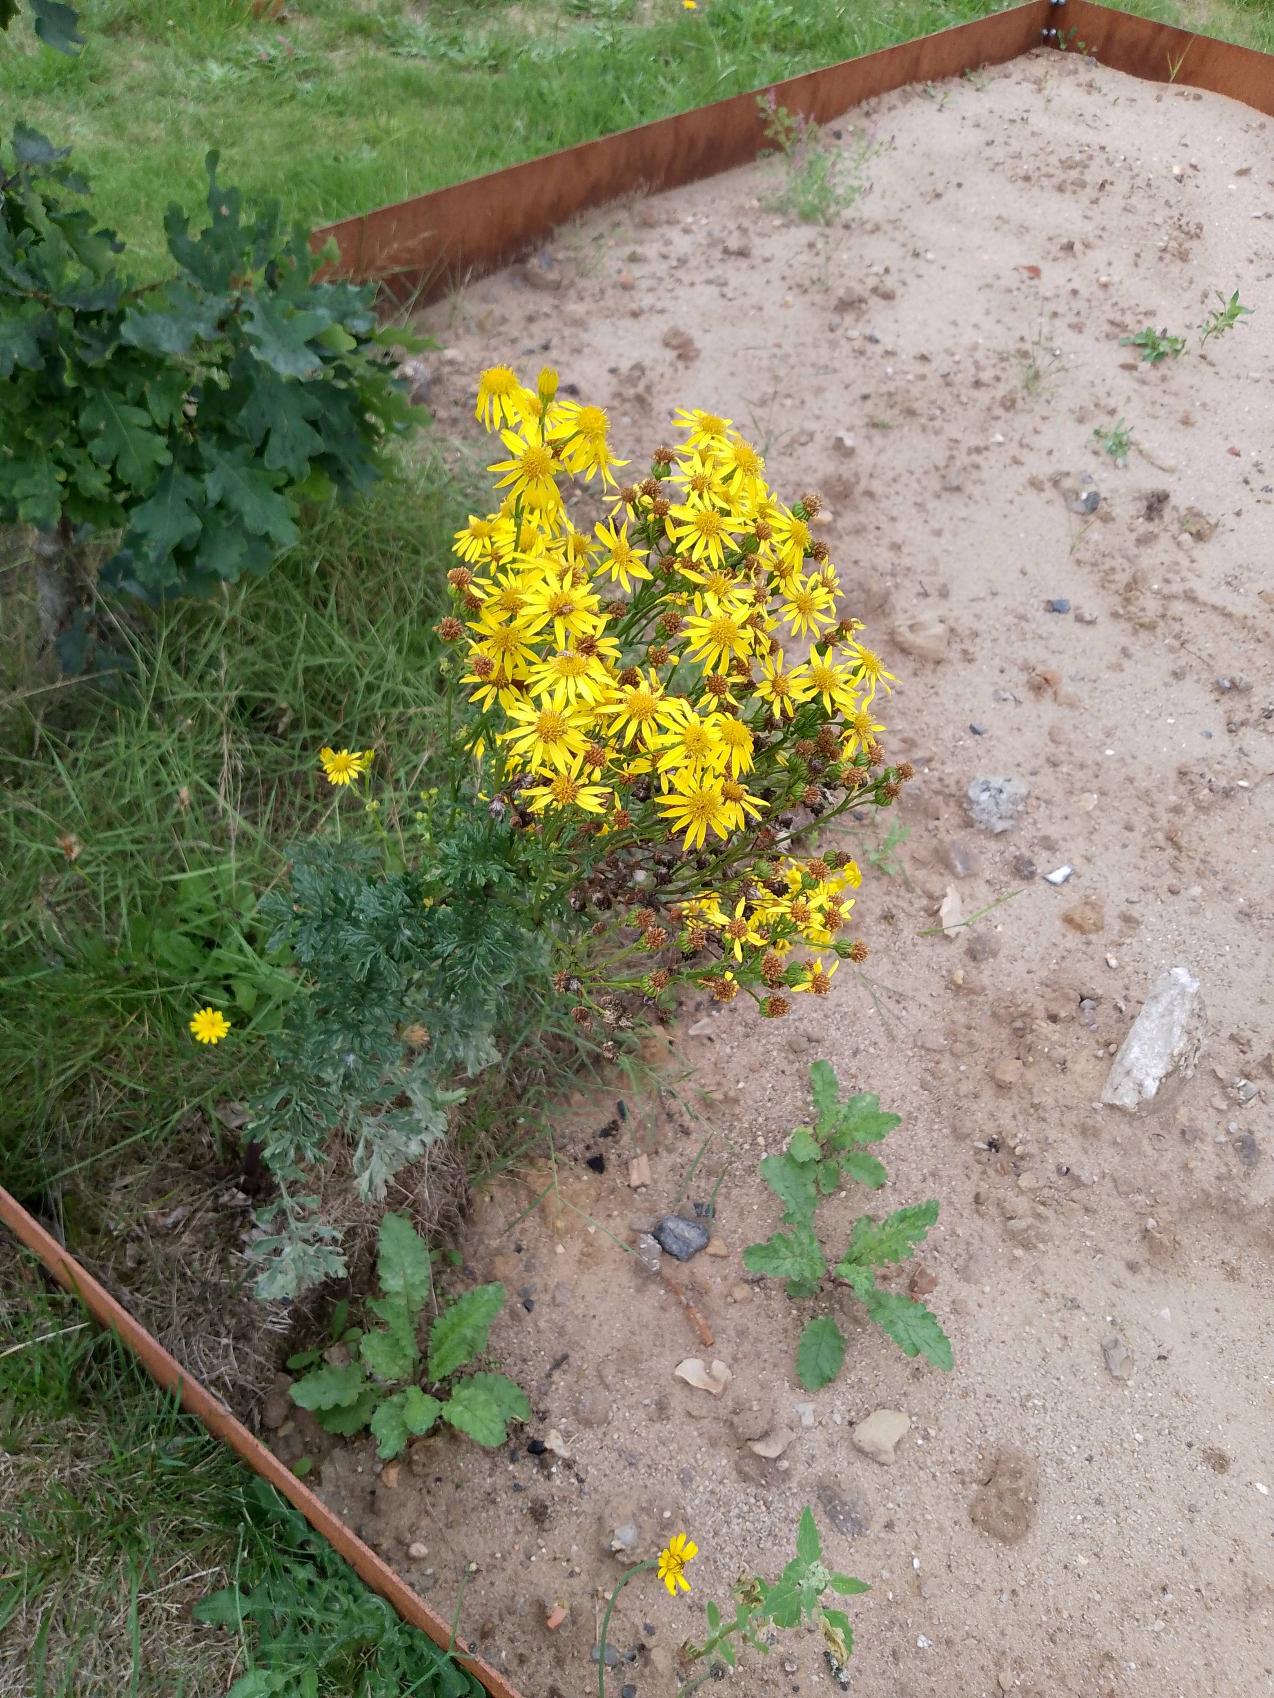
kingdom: Plantae
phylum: Tracheophyta
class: Magnoliopsida
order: Asterales
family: Asteraceae
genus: Jacobaea
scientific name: Jacobaea vulgaris
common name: Eng-brandbæger
